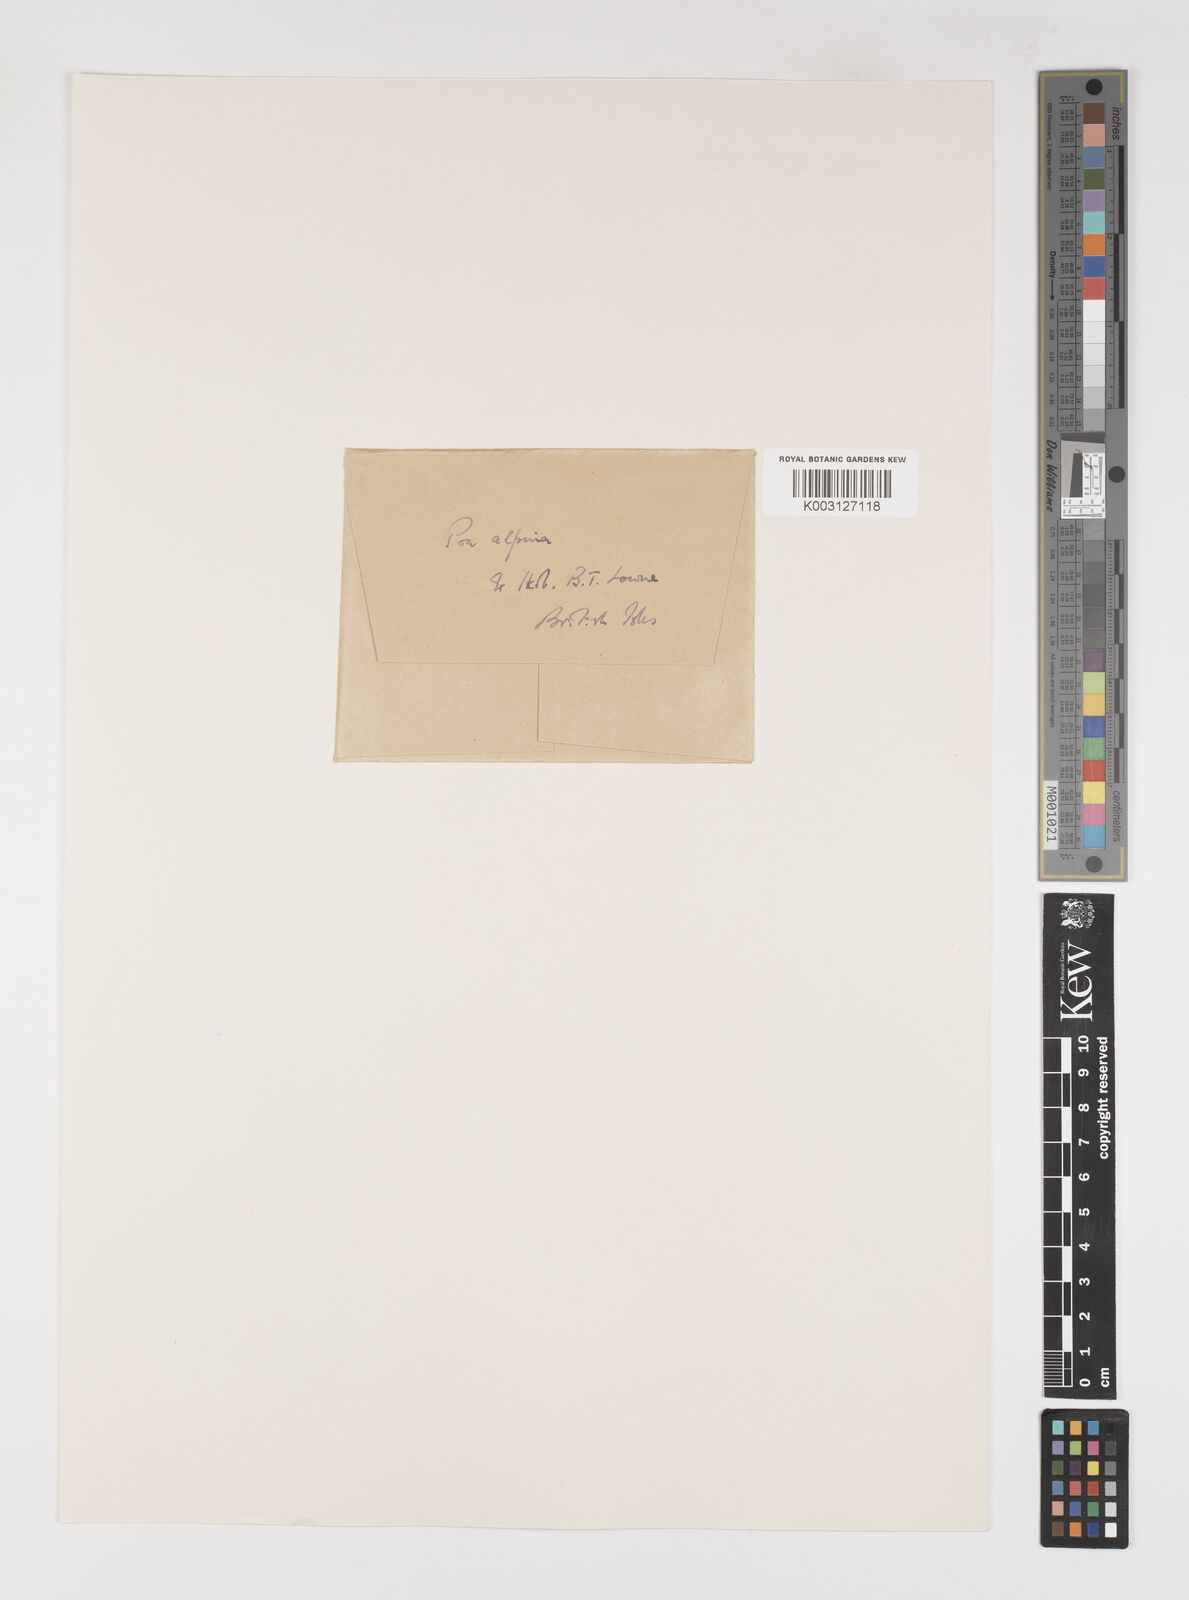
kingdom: Plantae
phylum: Tracheophyta
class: Liliopsida
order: Poales
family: Poaceae
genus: Poa
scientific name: Poa alpina
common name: Alpine bluegrass
